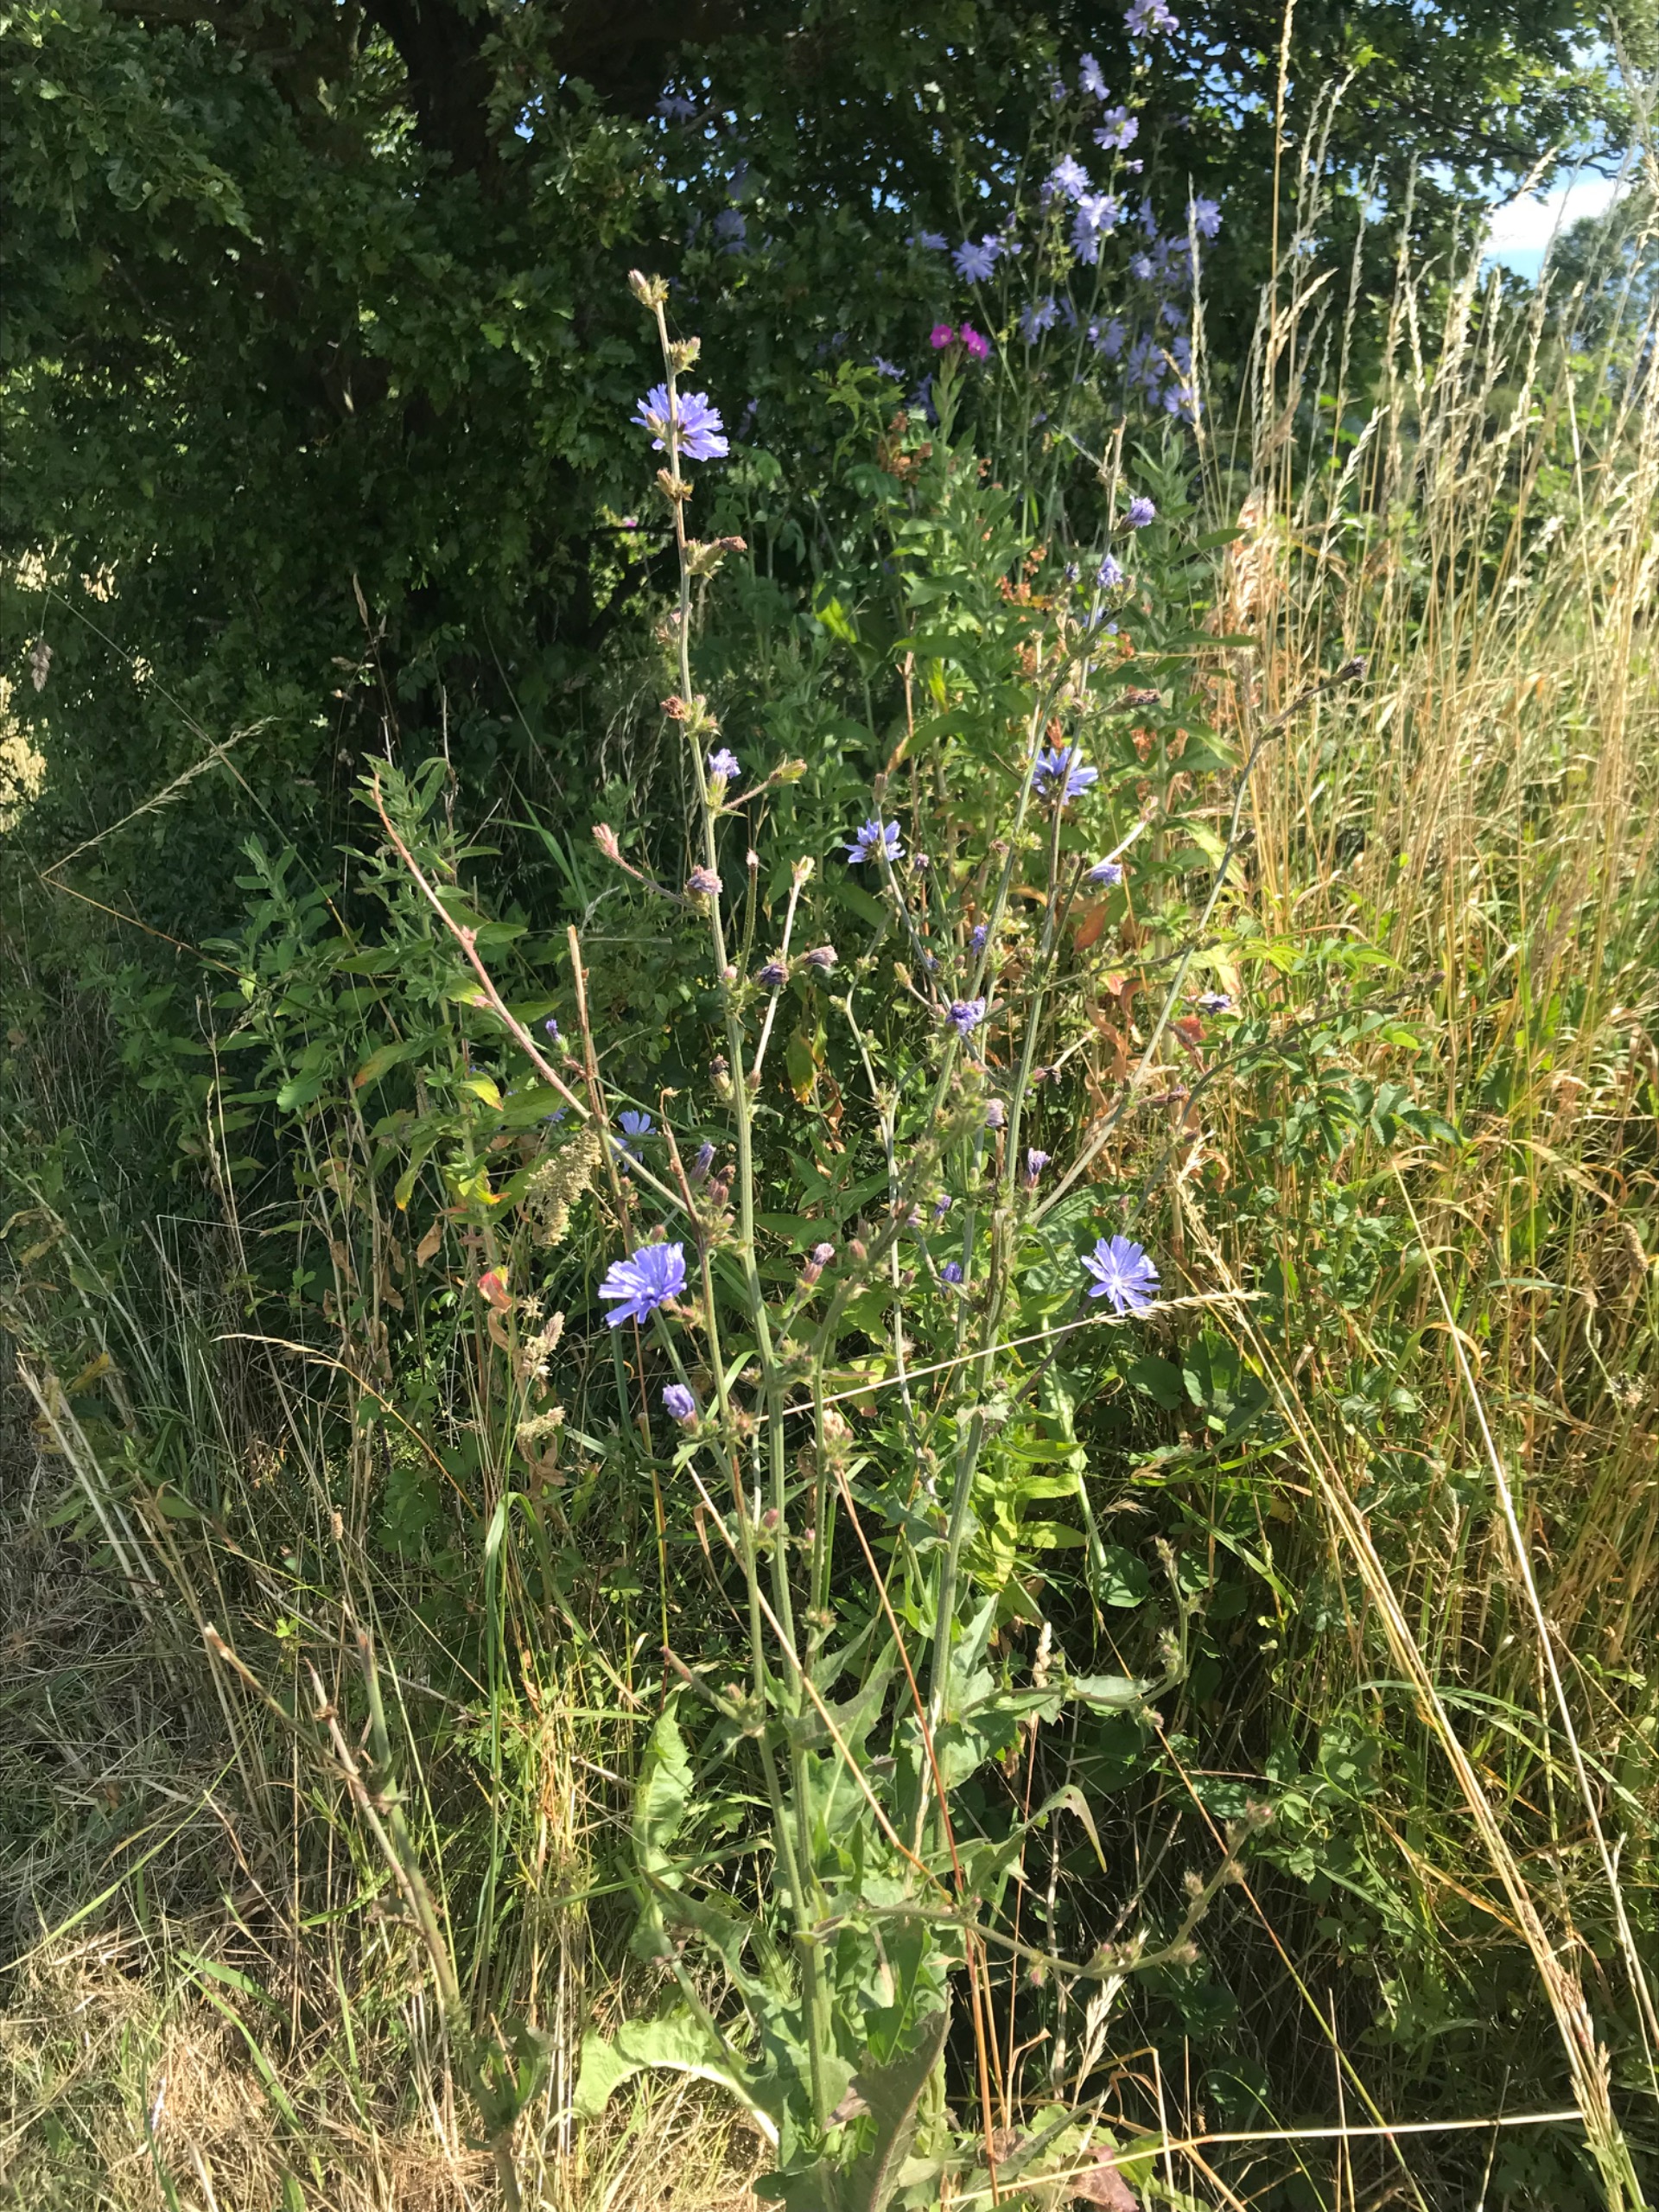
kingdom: Plantae
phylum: Tracheophyta
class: Magnoliopsida
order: Asterales
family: Asteraceae
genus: Cichorium
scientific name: Cichorium intybus
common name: Cikorie
